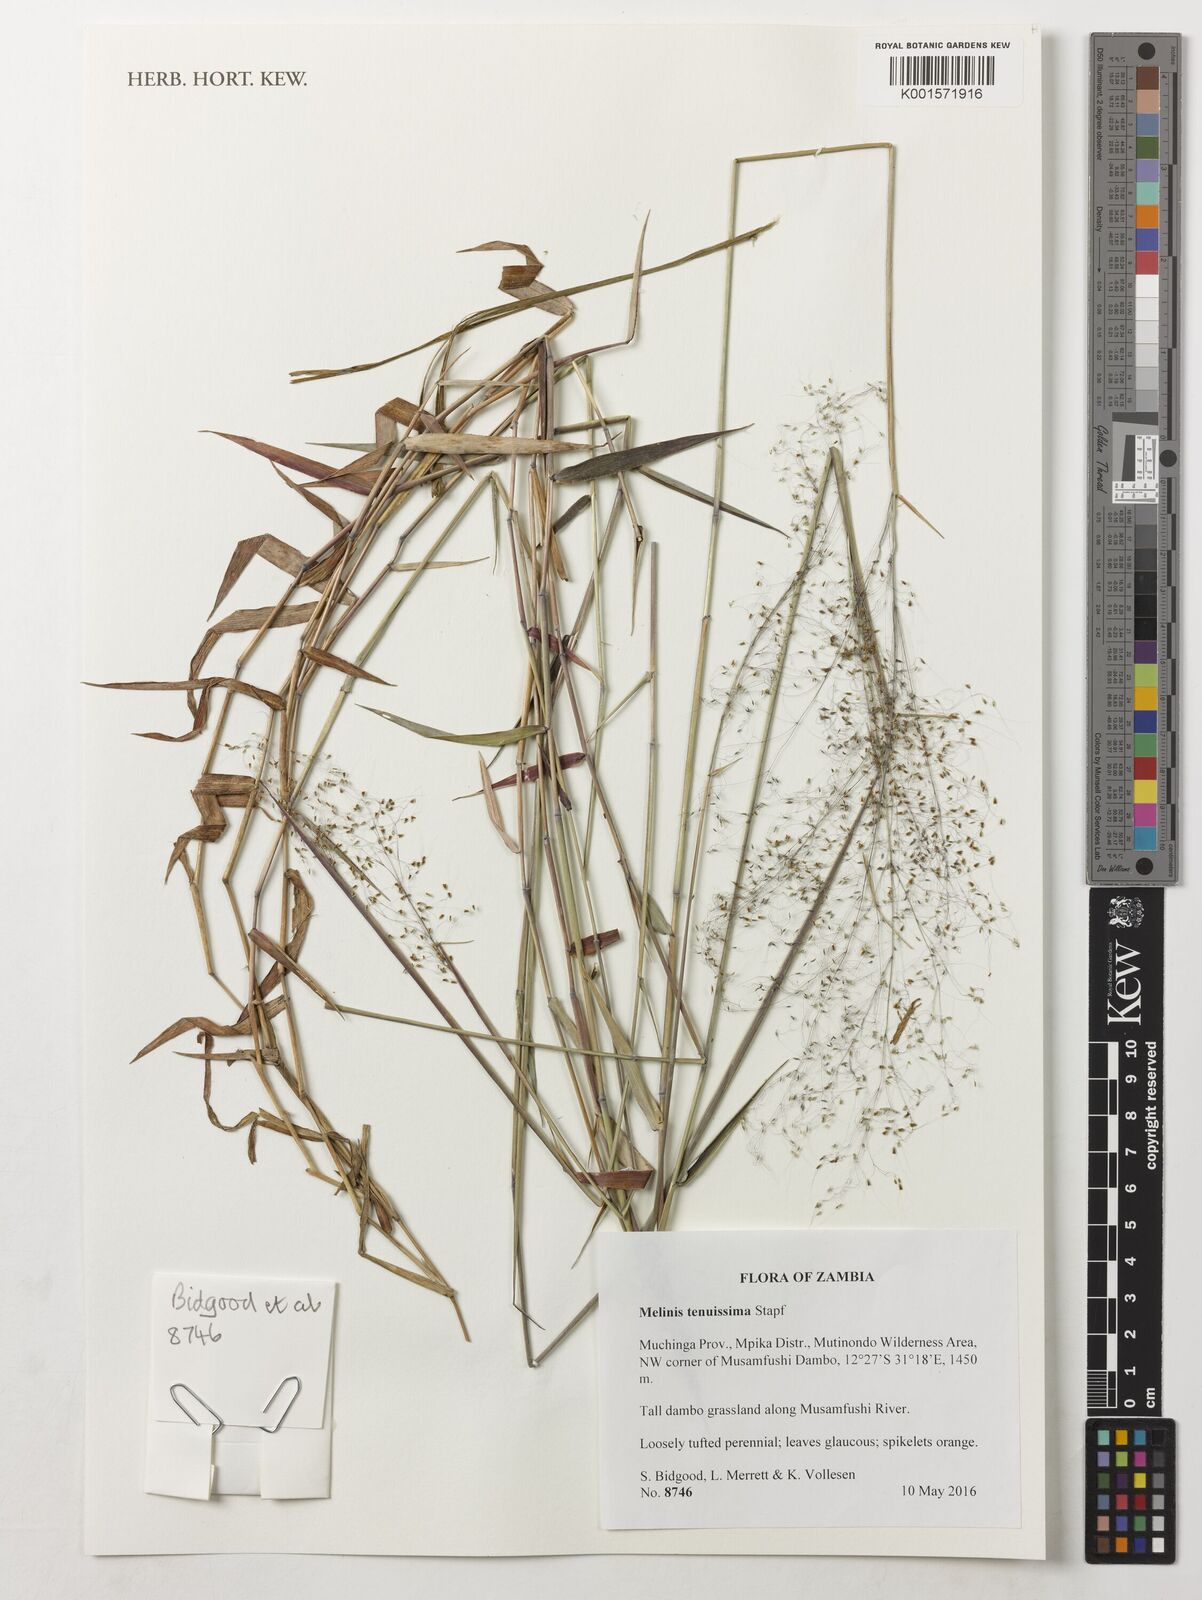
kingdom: Plantae
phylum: Tracheophyta
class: Liliopsida
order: Poales
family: Poaceae
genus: Melinis
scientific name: Melinis tenuissima
